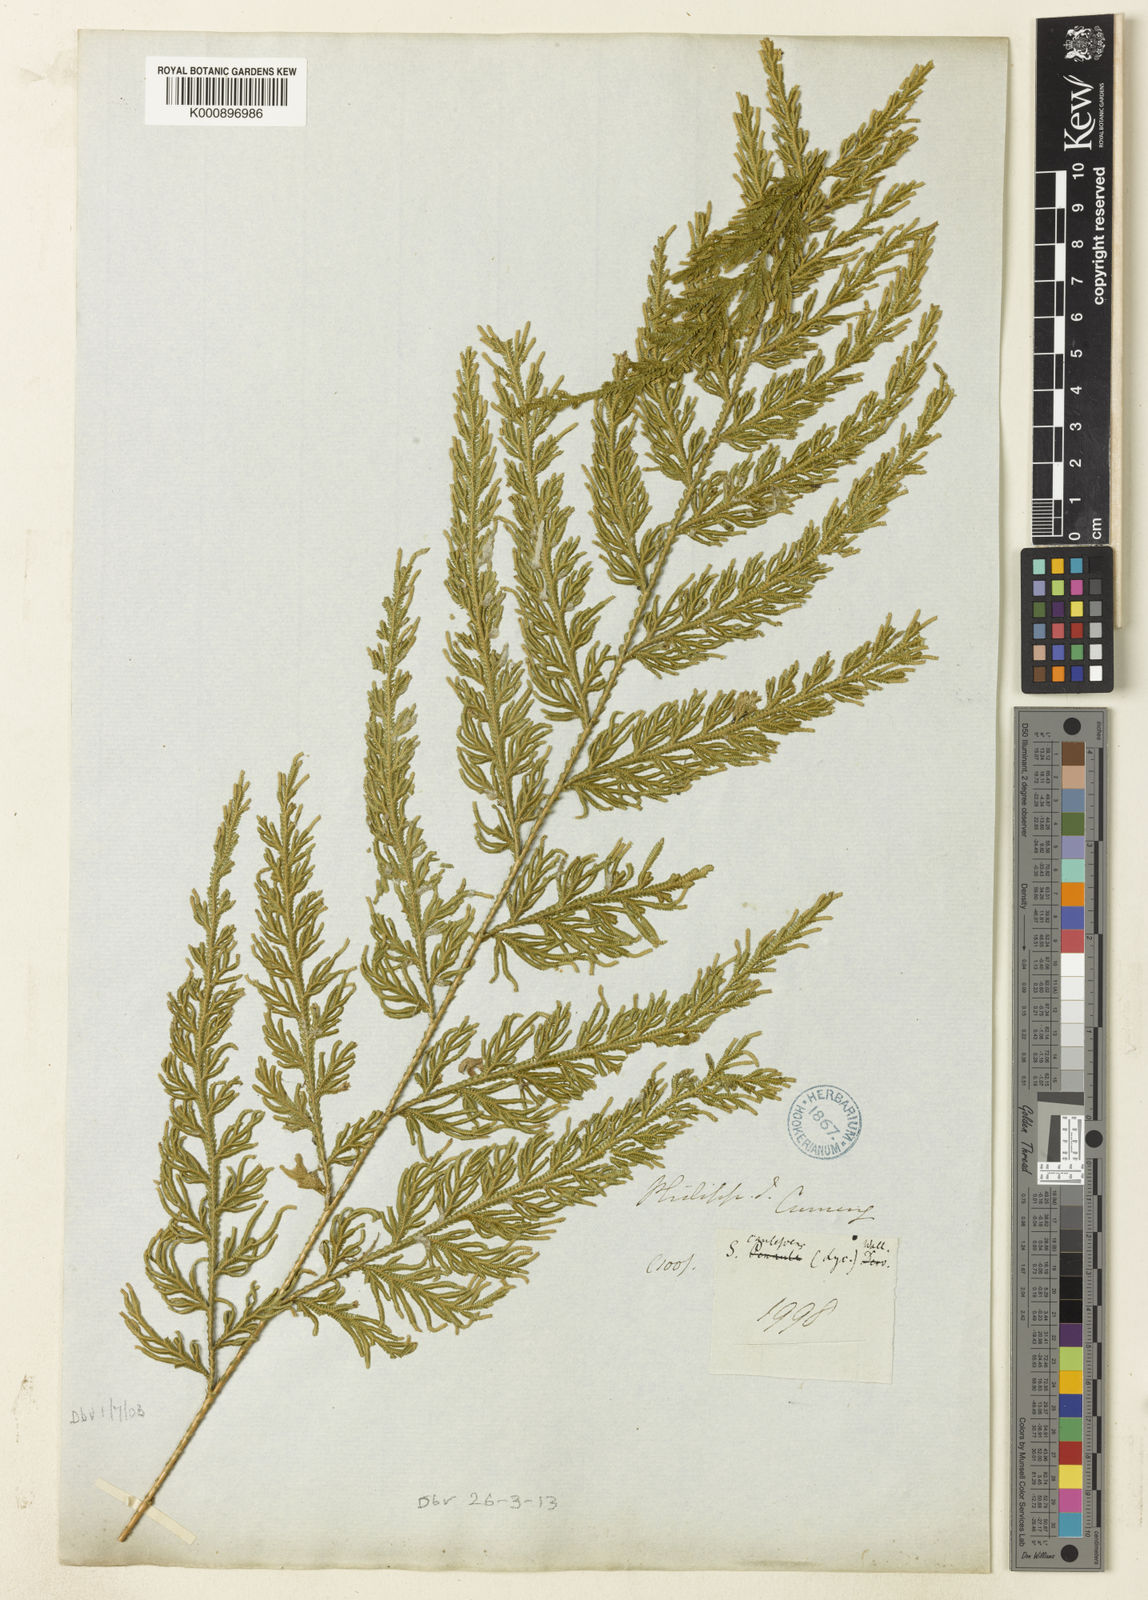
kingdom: Plantae
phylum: Tracheophyta
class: Lycopodiopsida
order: Selaginellales
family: Selaginellaceae
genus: Selaginella
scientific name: Selaginella involvens
